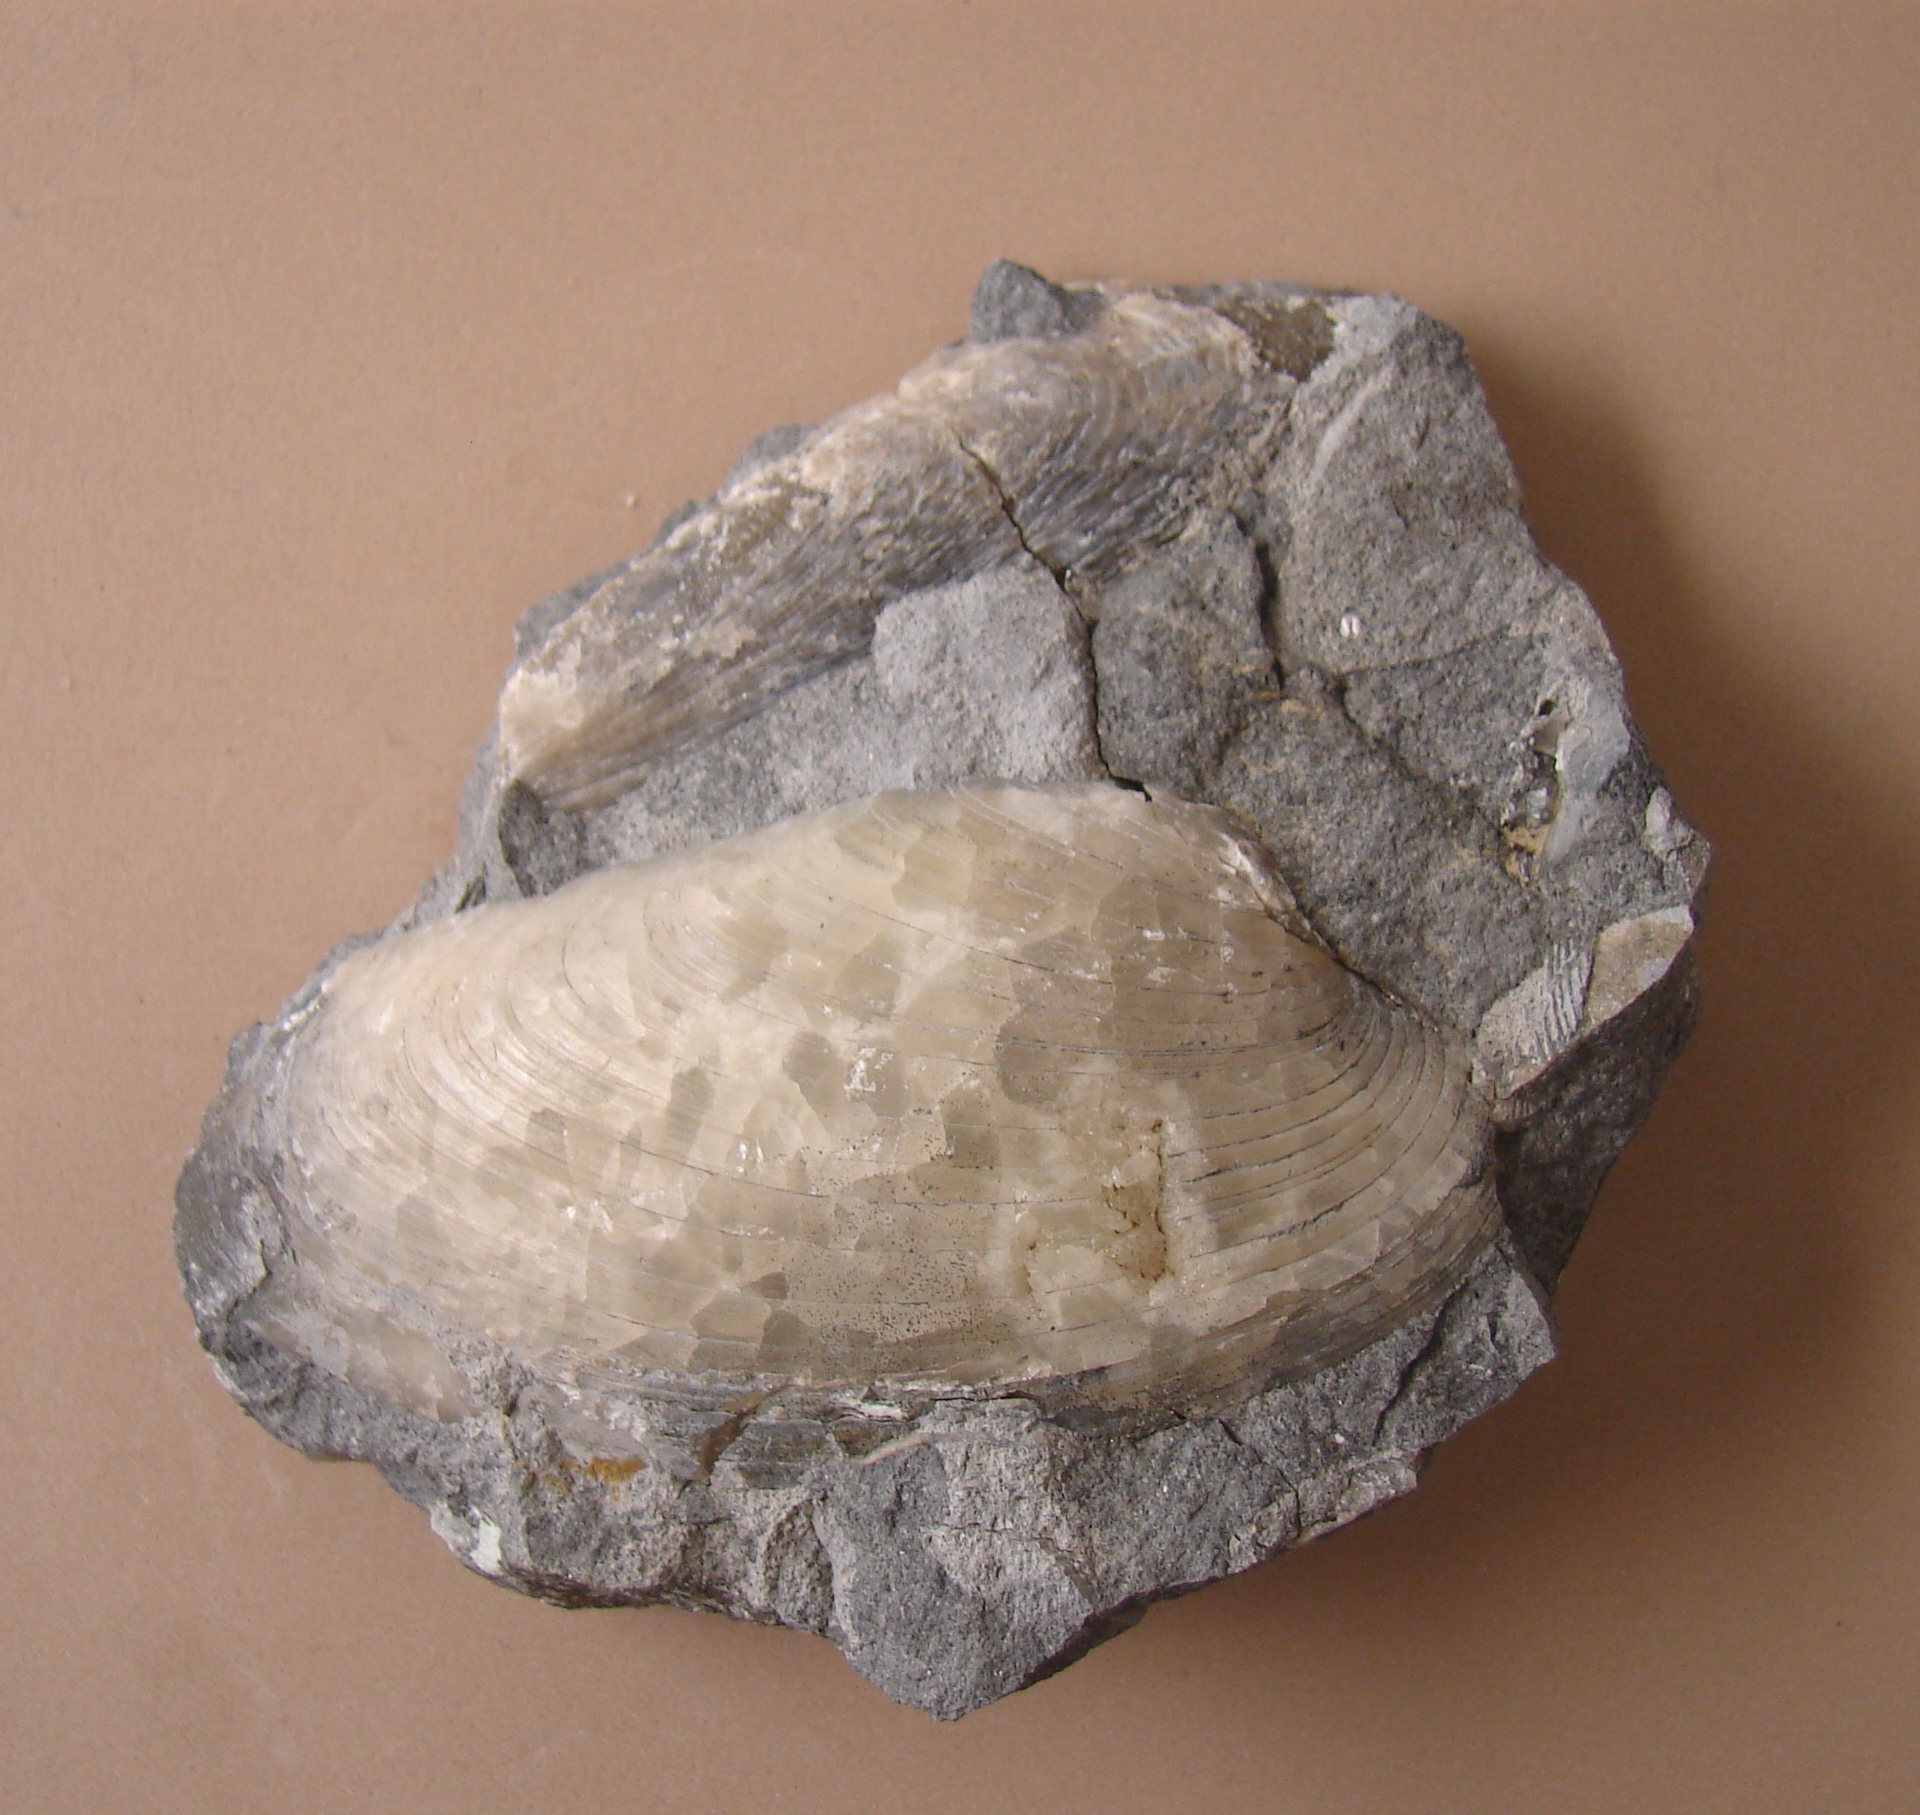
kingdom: Animalia
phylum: Mollusca
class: Bivalvia
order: Carditida
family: Cardiniidae
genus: Cardinia
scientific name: Cardinia
